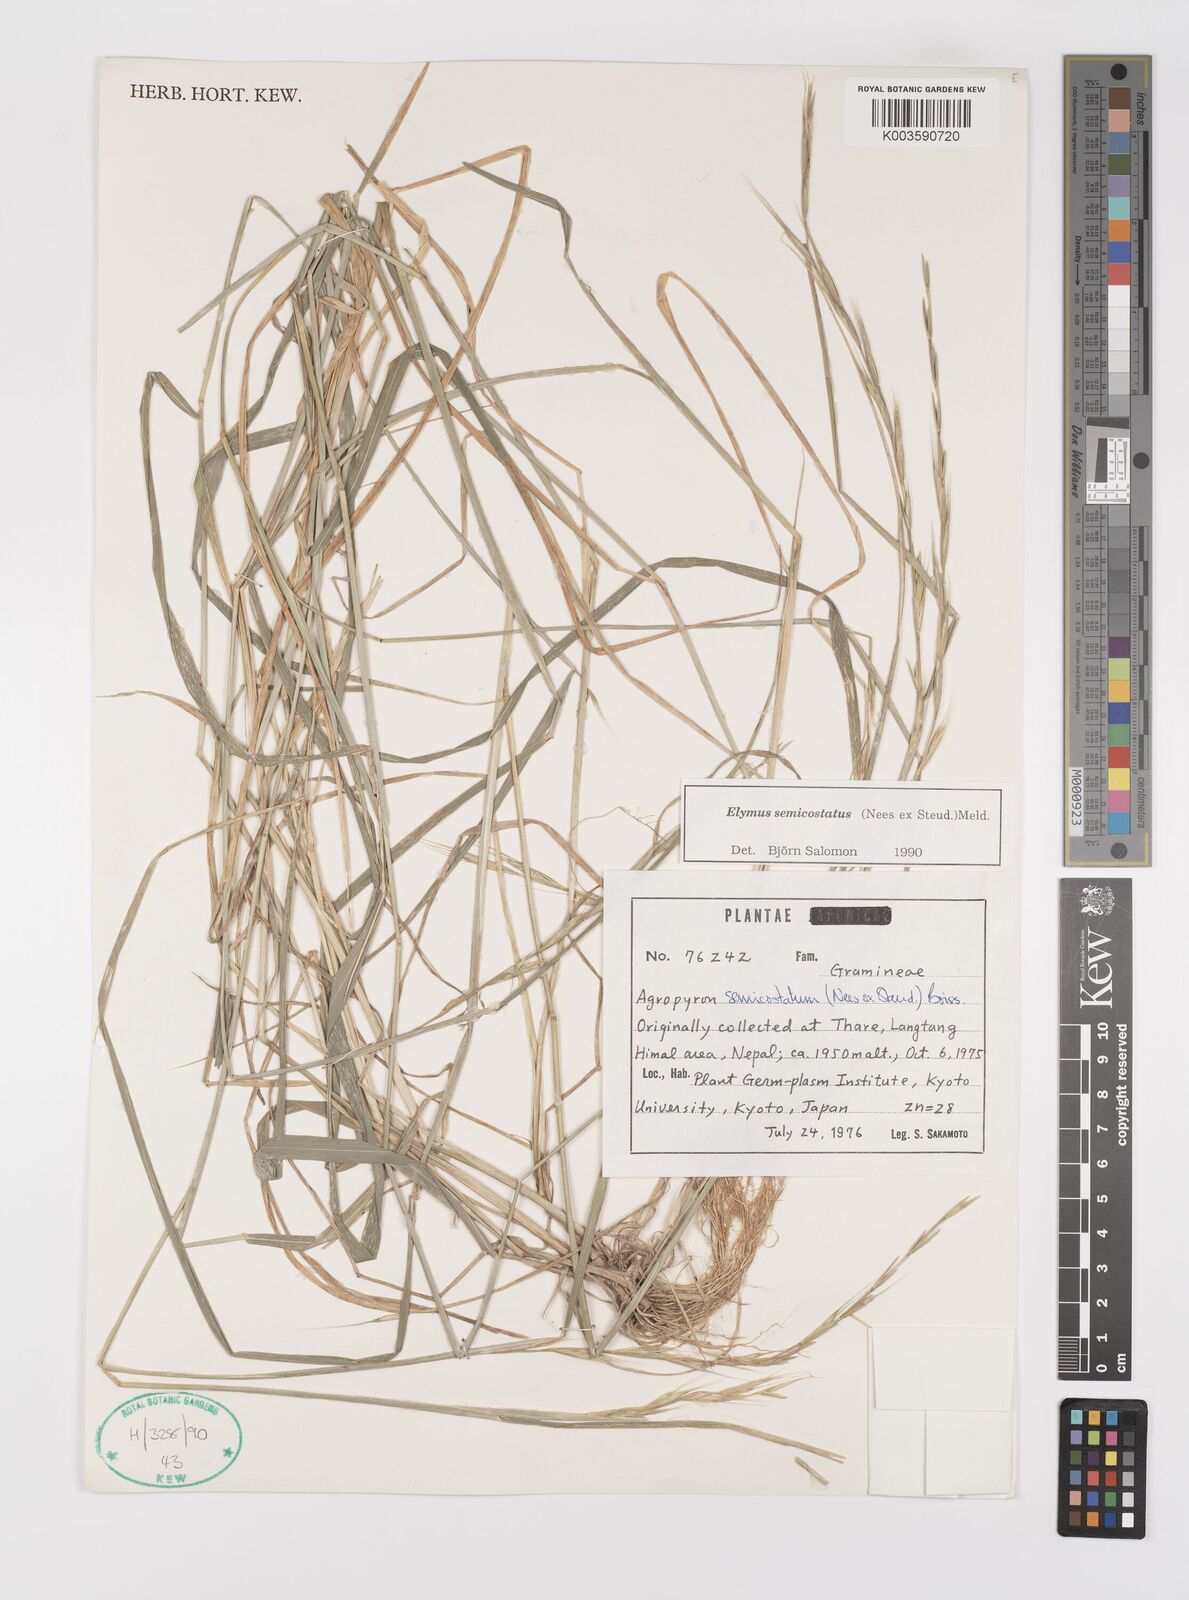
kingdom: Plantae
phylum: Tracheophyta
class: Liliopsida
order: Poales
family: Poaceae
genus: Elymus
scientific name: Elymus semicostatus
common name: Drooping wildrye
